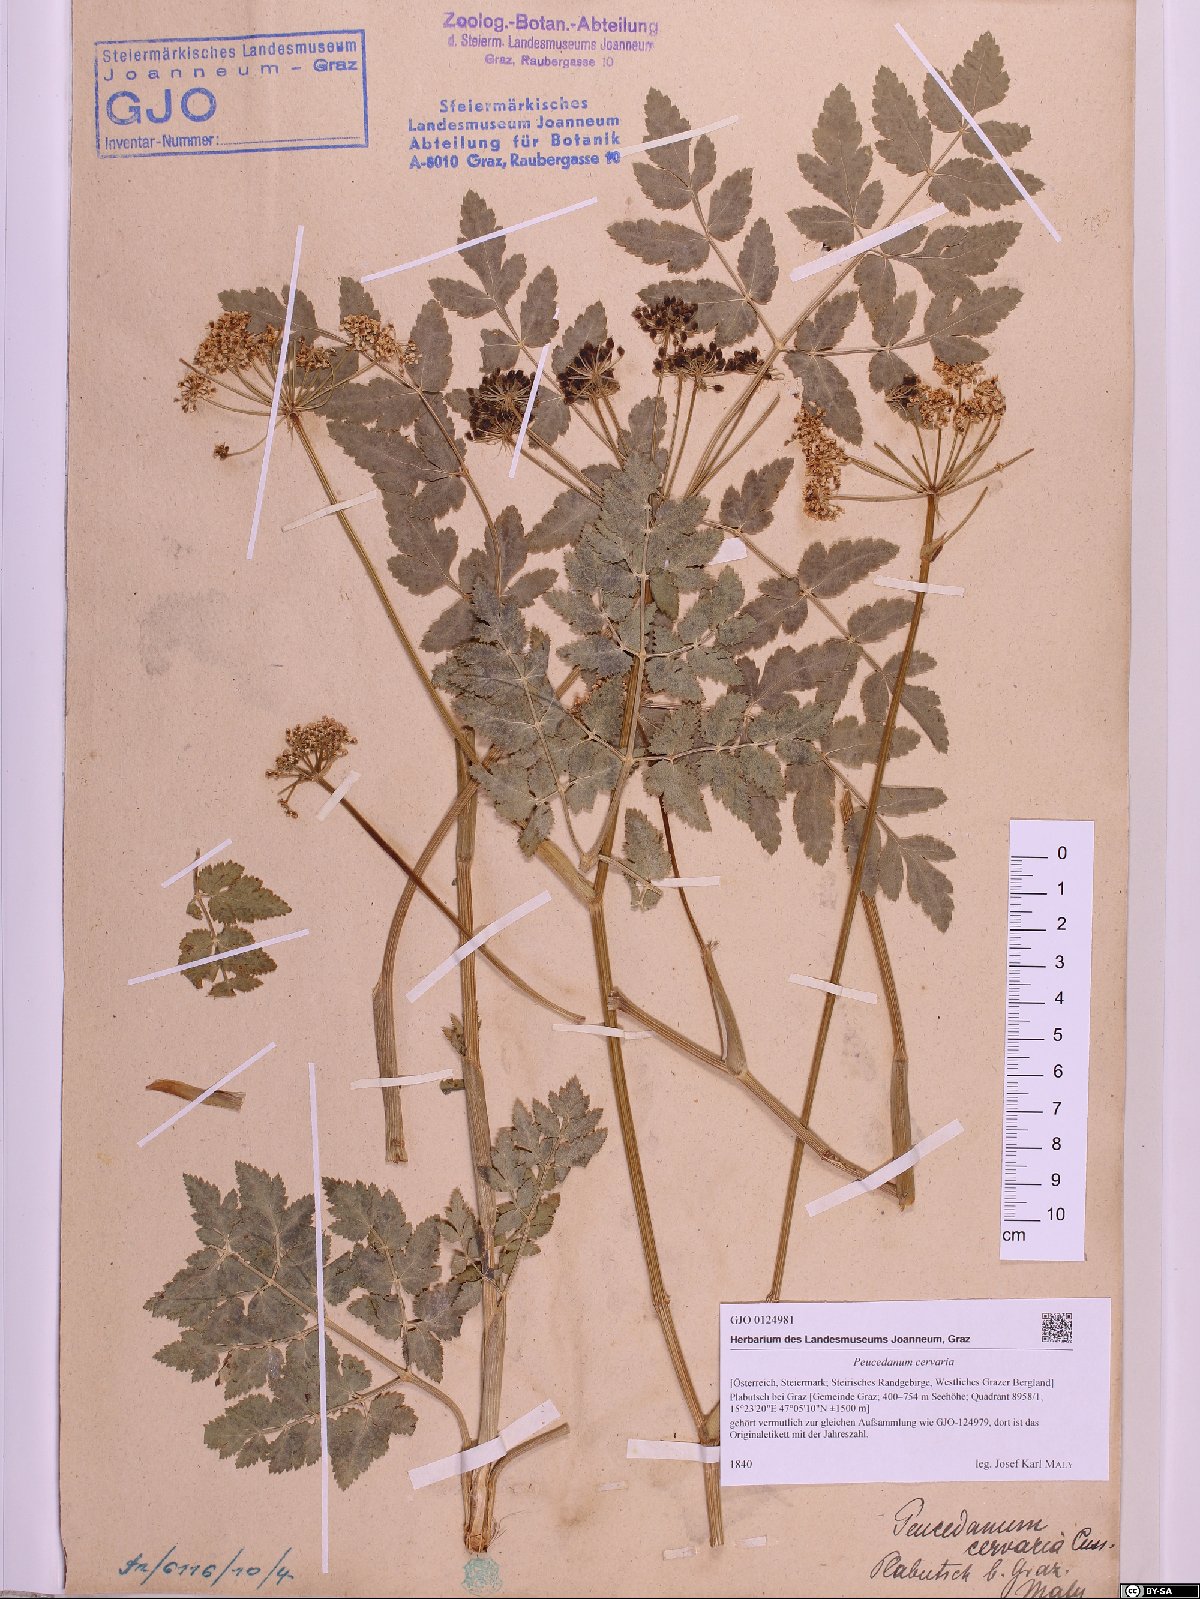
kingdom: Plantae
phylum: Tracheophyta
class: Magnoliopsida
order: Apiales
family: Apiaceae
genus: Cervaria
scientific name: Cervaria rivini
